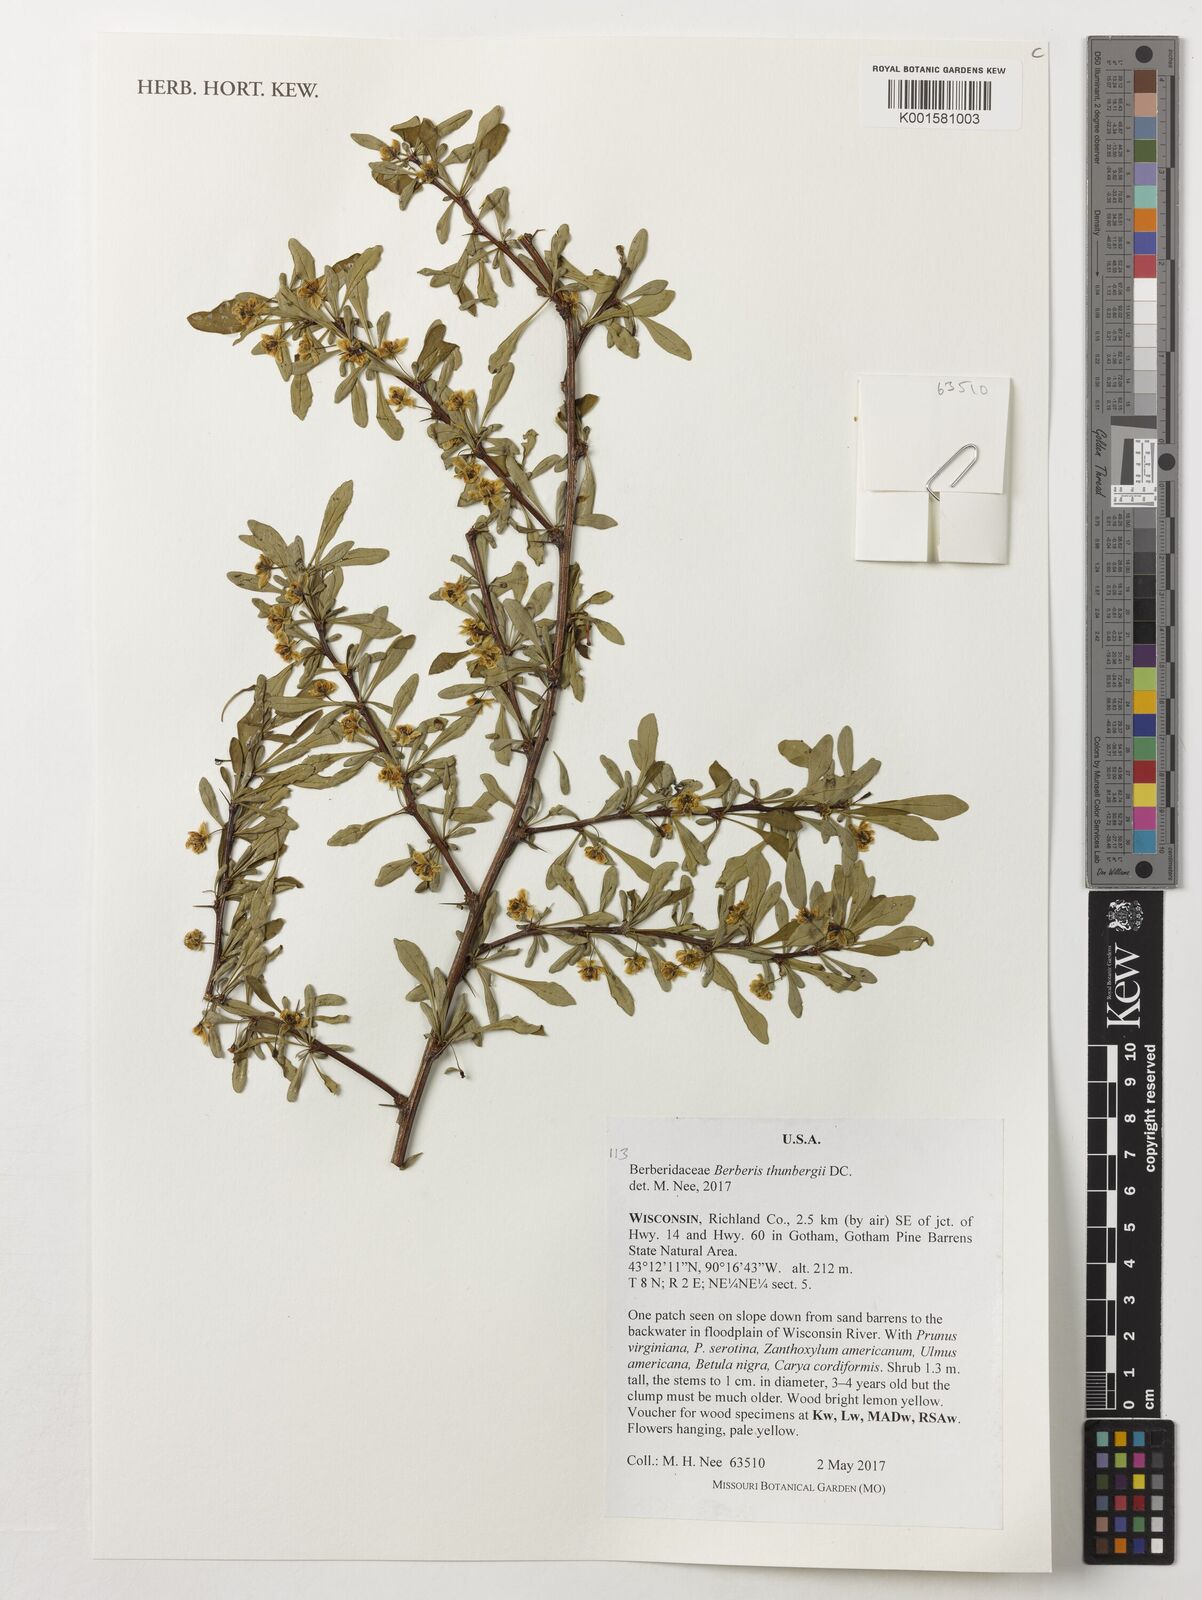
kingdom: Plantae
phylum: Tracheophyta
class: Magnoliopsida
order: Ranunculales
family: Berberidaceae
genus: Berberis
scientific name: Berberis thunbergii
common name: Japanese barberry
